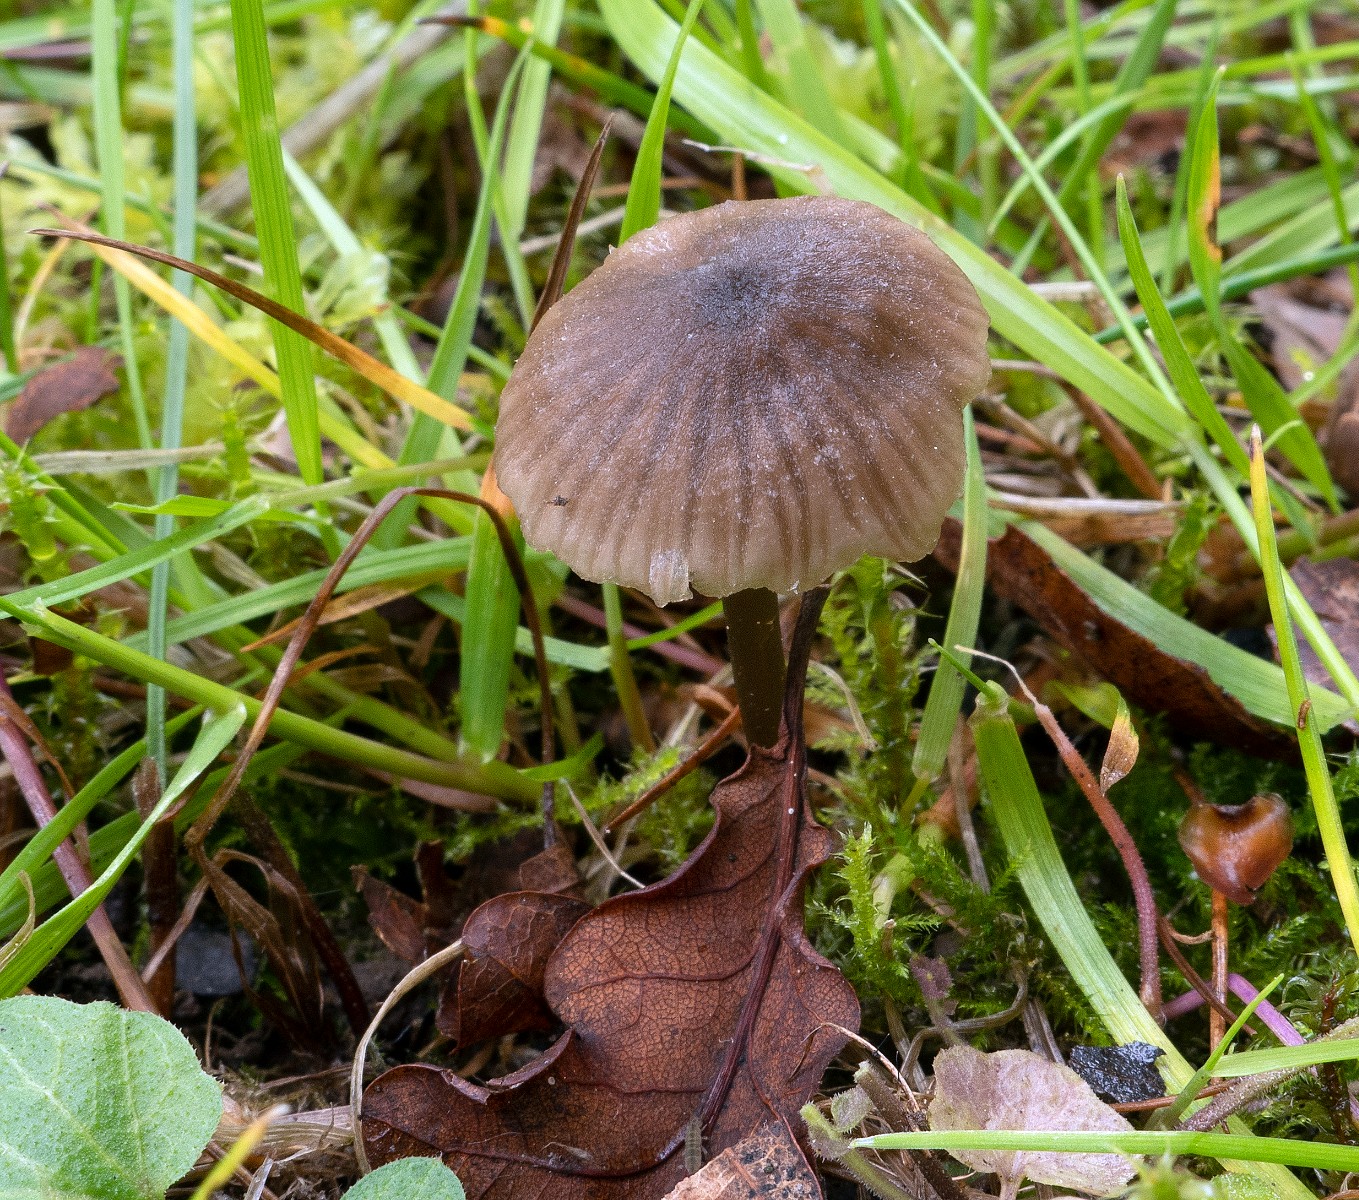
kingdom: Fungi
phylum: Basidiomycota
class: Agaricomycetes
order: Agaricales
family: Entolomataceae
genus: Entoloma
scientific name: Entoloma minutum
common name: liden rødblad
